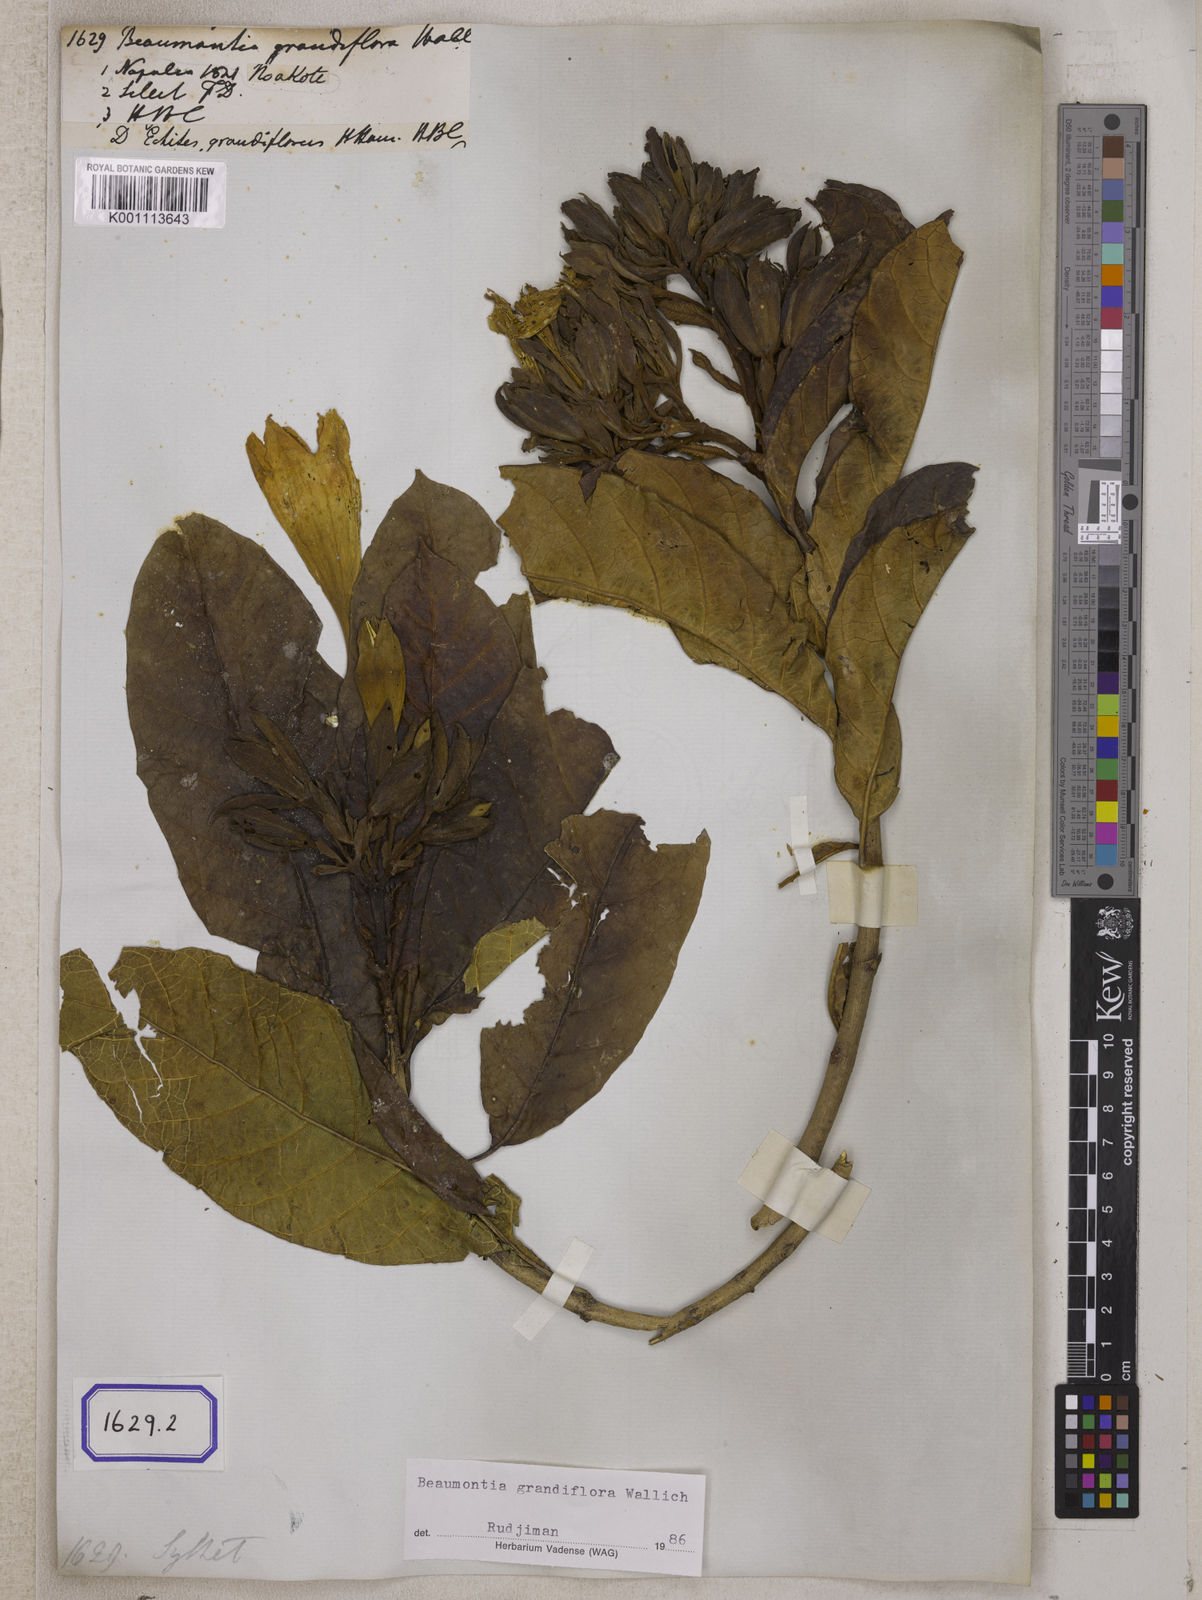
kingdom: Plantae
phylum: Tracheophyta
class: Magnoliopsida
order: Gentianales
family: Apocynaceae
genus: Beaumontia
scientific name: Beaumontia grandiflora
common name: Easter-lily-vine
